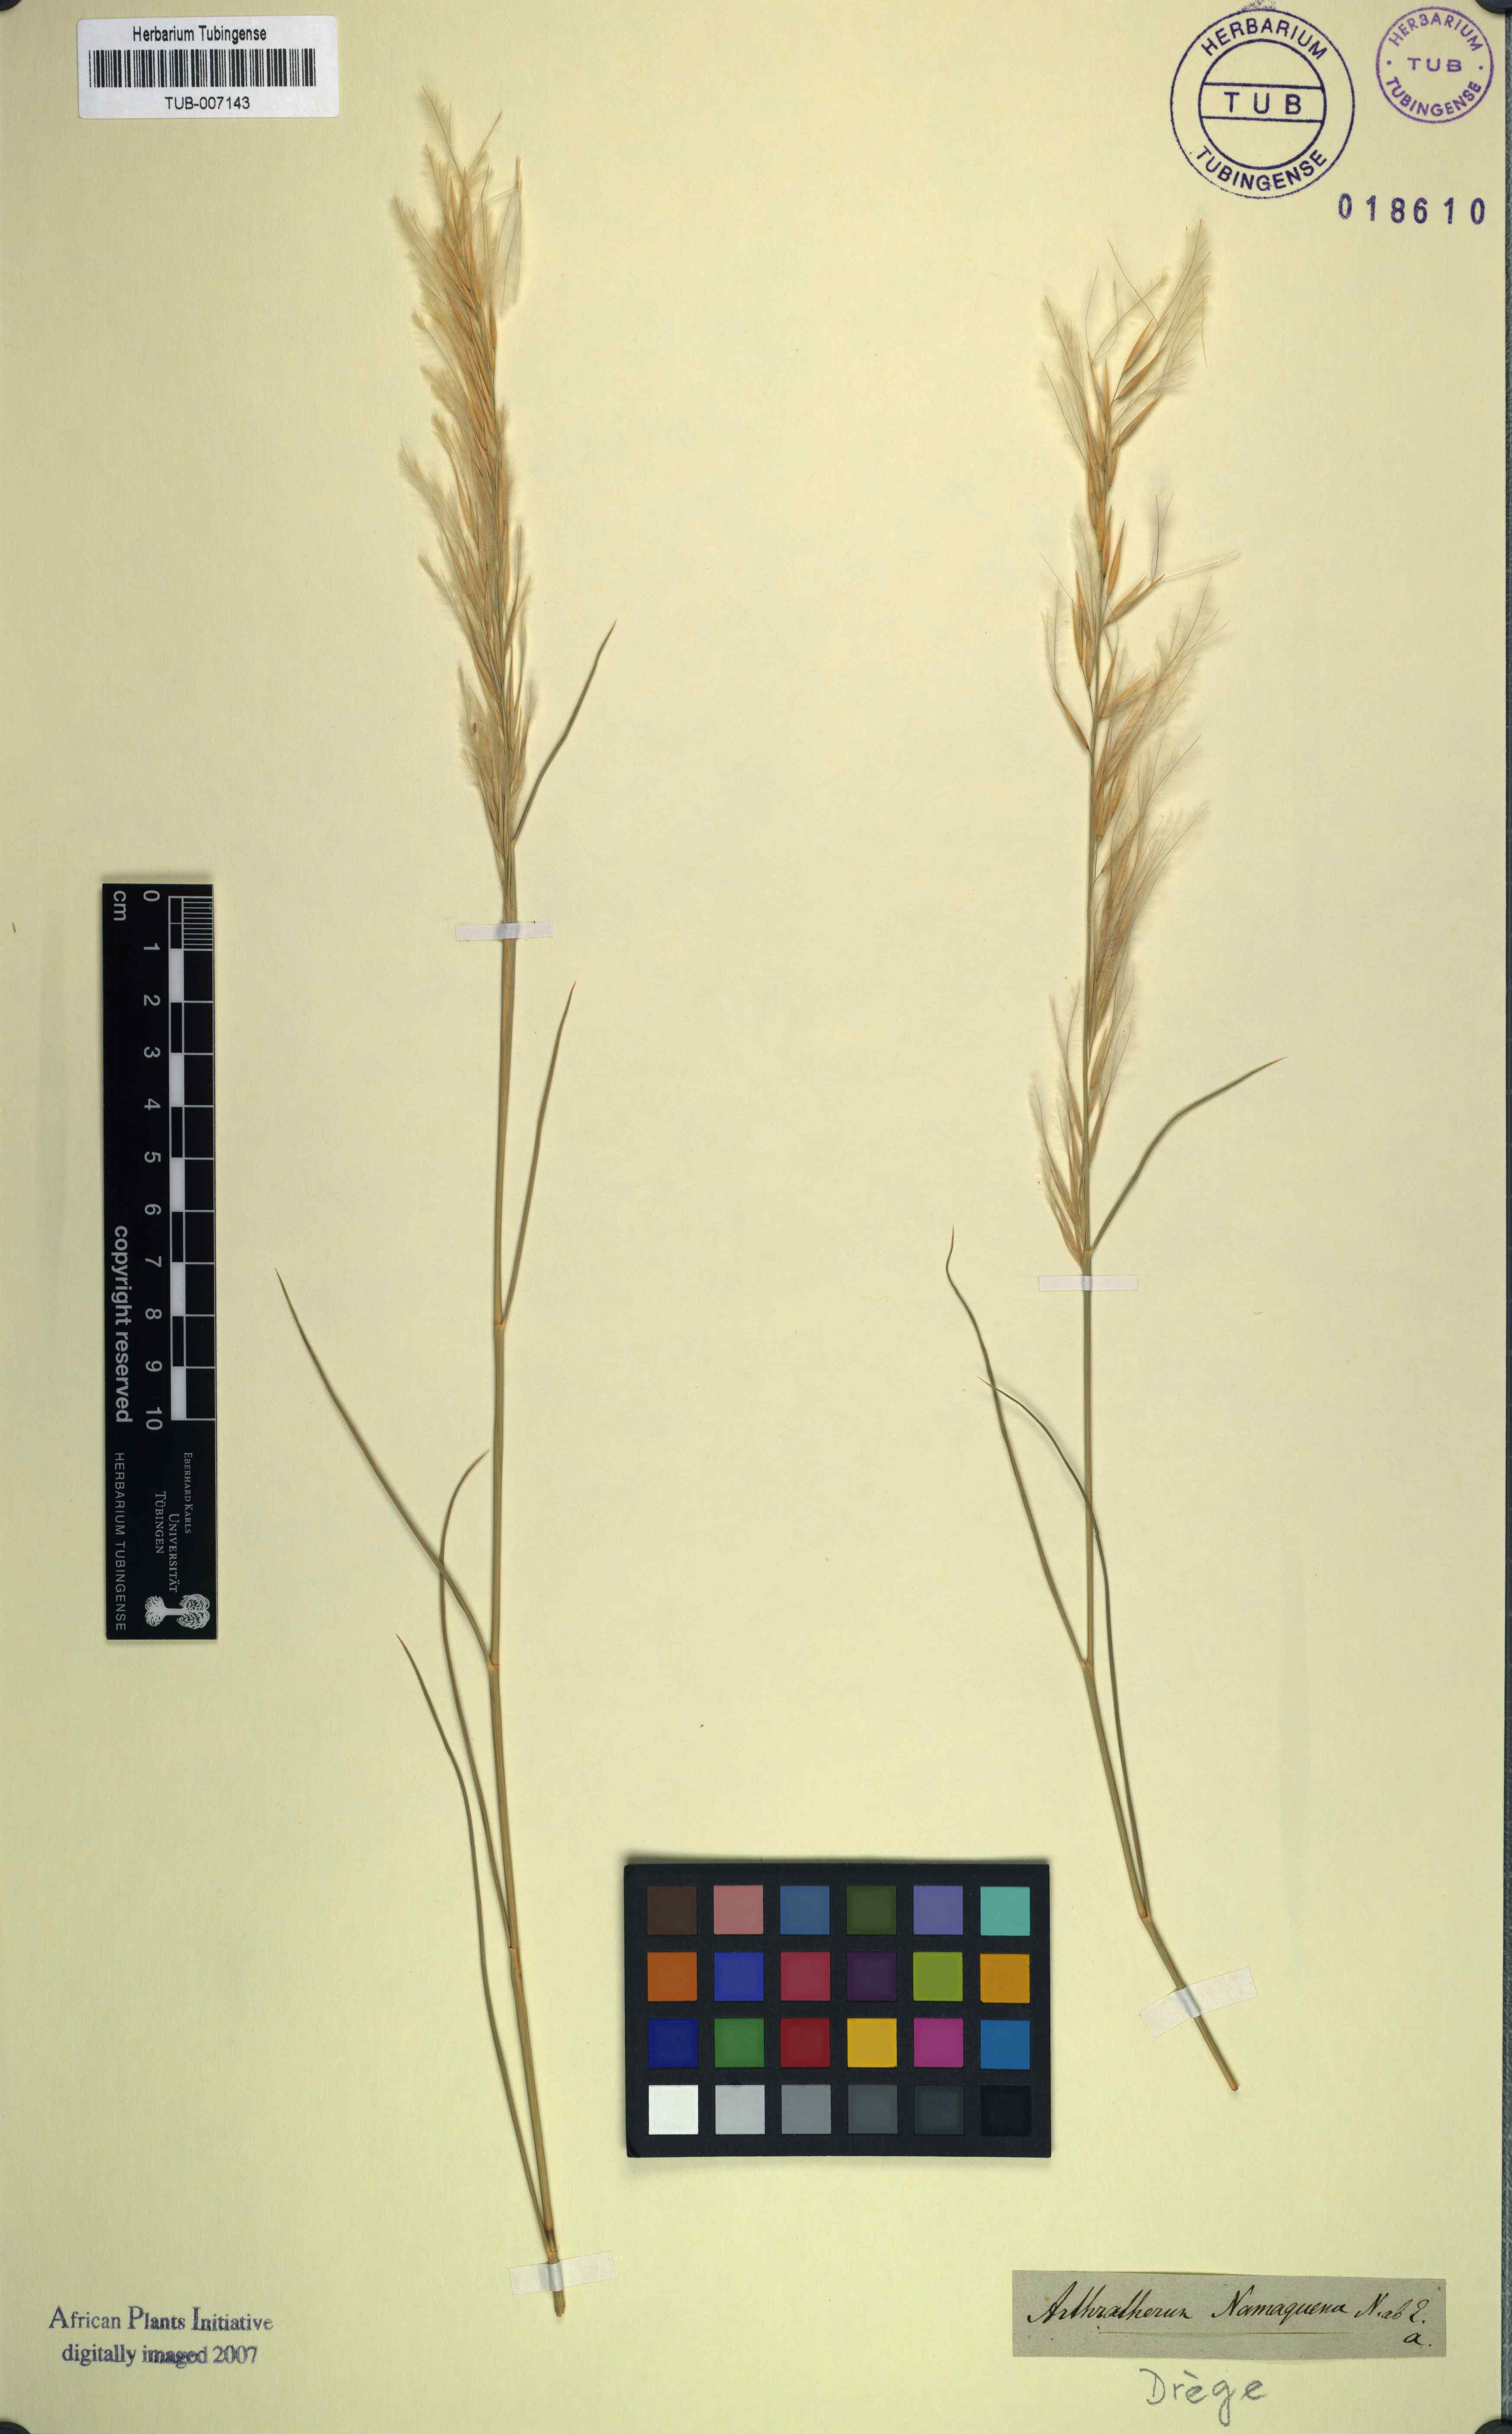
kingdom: Plantae
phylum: Tracheophyta
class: Liliopsida
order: Poales
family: Poaceae
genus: Stipagrostis
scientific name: Stipagrostis namaquensis
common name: River bushman grass
